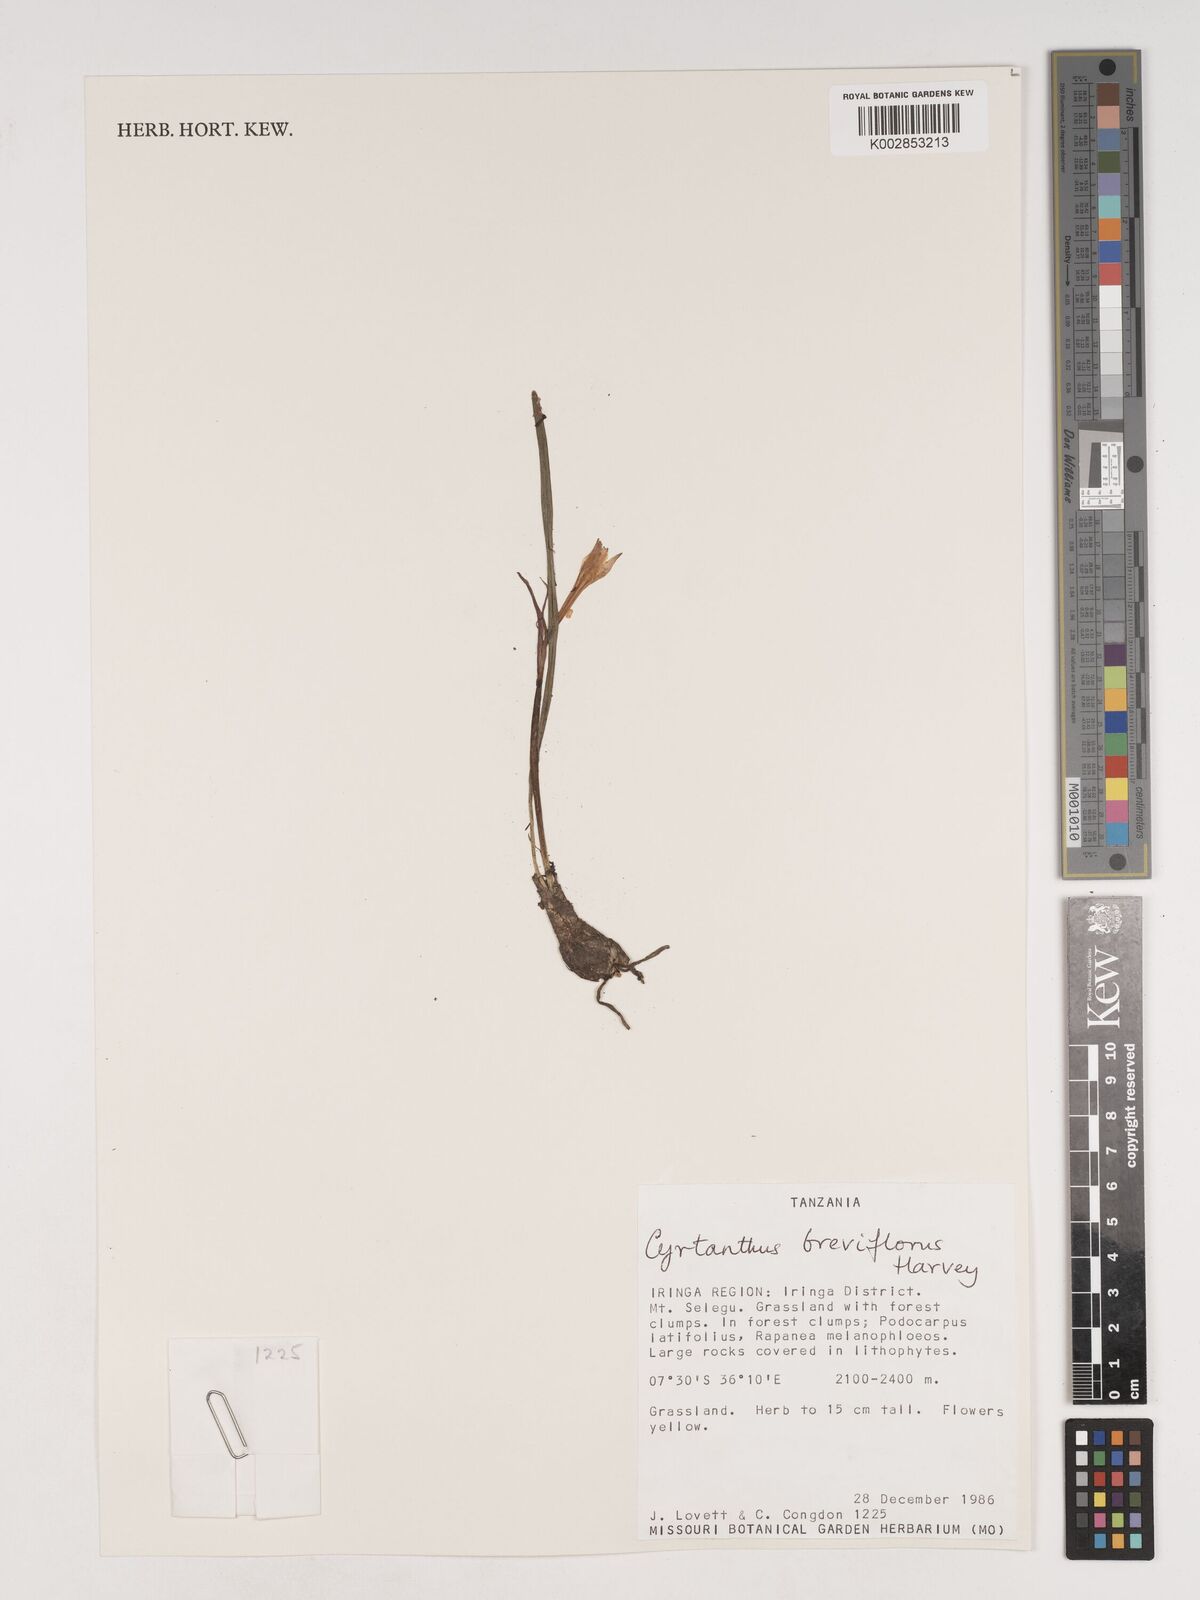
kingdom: Plantae
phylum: Tracheophyta
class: Liliopsida
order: Asparagales
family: Amaryllidaceae
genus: Cyrtanthus
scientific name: Cyrtanthus breviflorus
